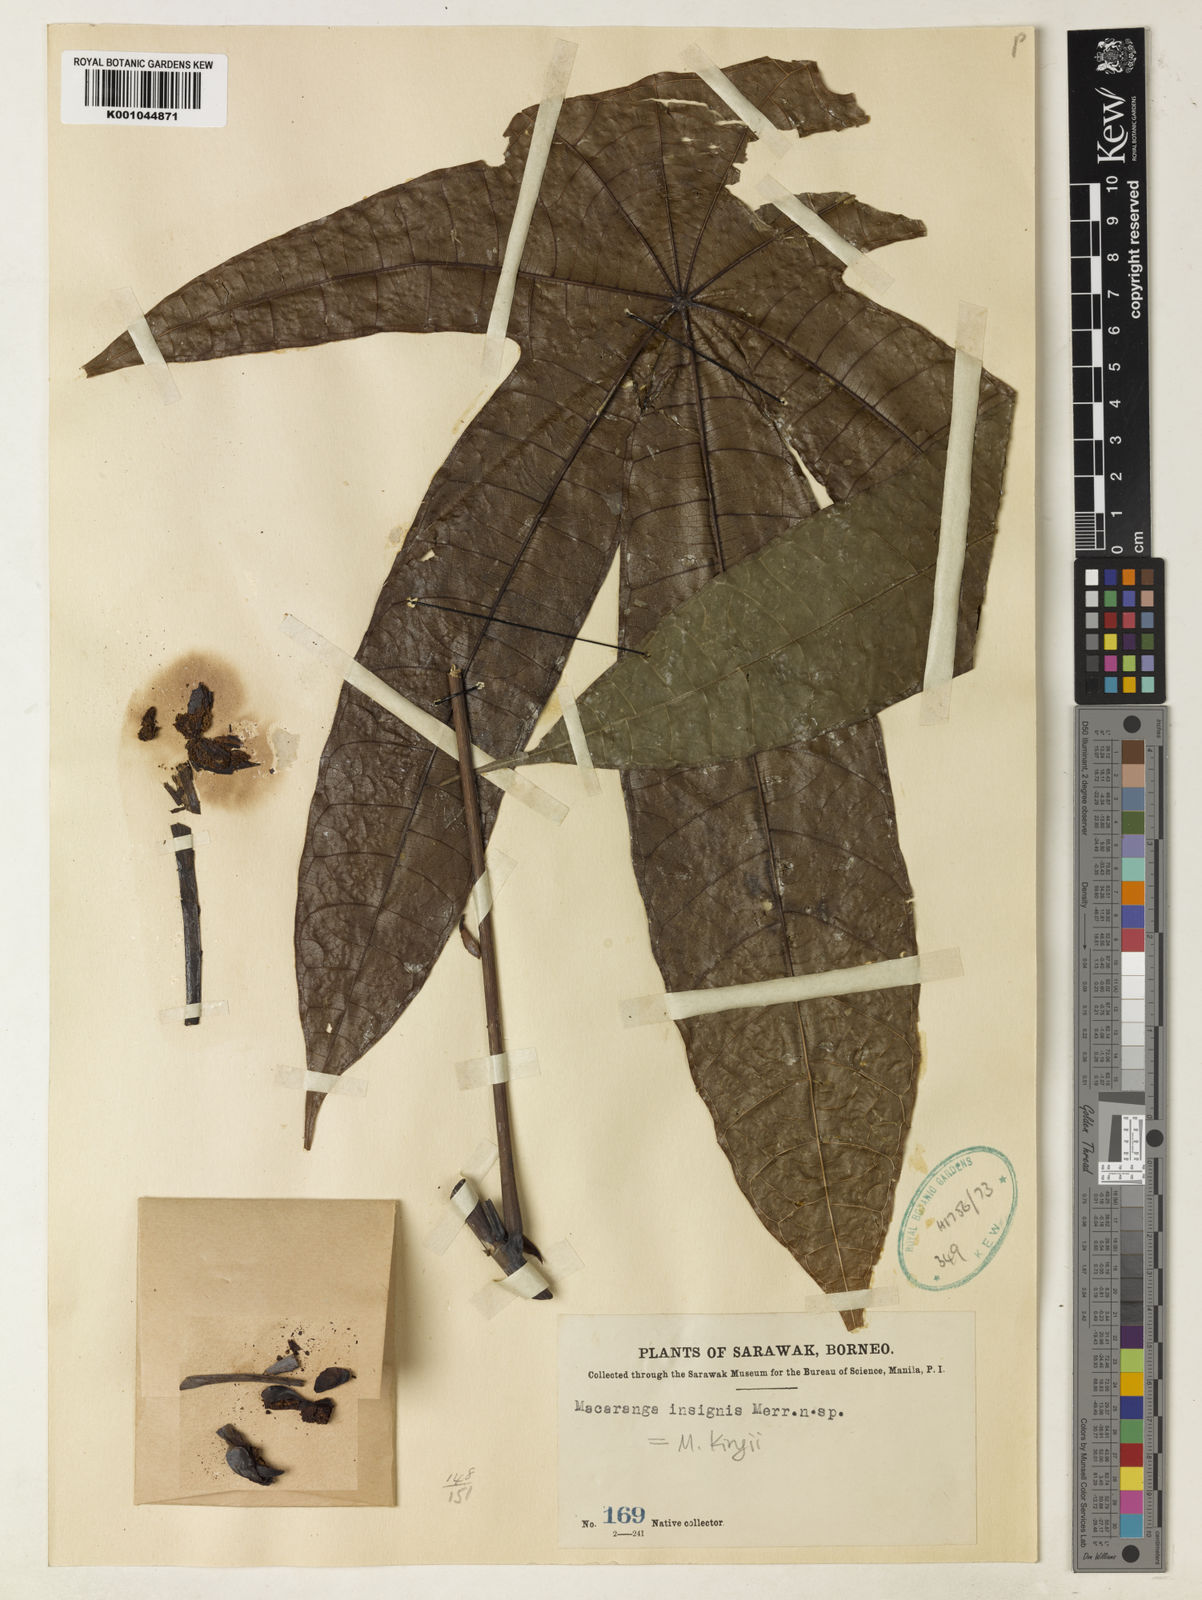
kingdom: Plantae
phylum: Tracheophyta
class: Magnoliopsida
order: Malpighiales
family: Euphorbiaceae
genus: Macaranga
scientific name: Macaranga kingii
